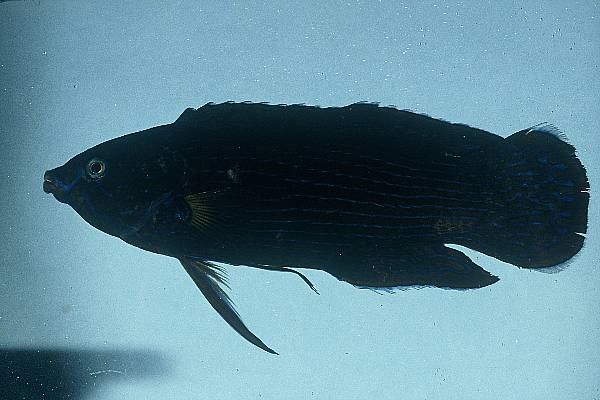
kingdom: Animalia
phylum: Chordata
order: Perciformes
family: Labridae
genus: Labrichthys
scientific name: Labrichthys unilineatus
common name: Onelined wrasse
